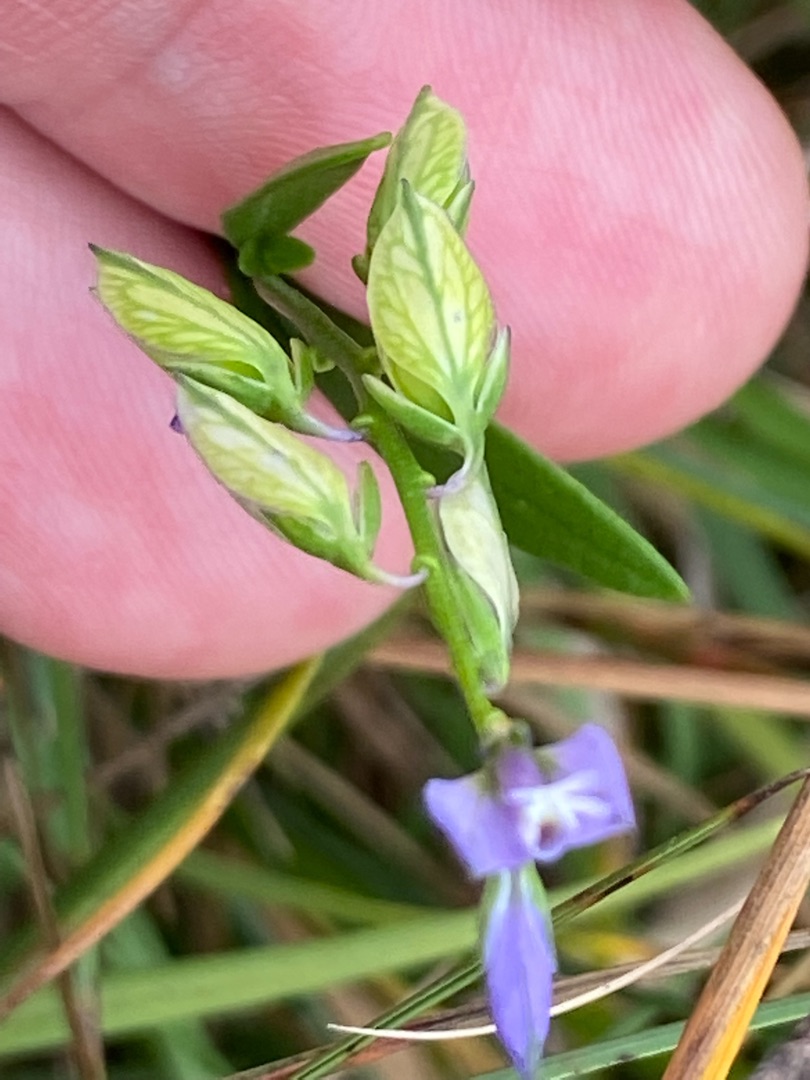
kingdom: Plantae
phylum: Tracheophyta
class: Magnoliopsida
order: Fabales
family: Polygalaceae
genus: Polygala
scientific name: Polygala vulgaris
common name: Almindelig mælkeurt
